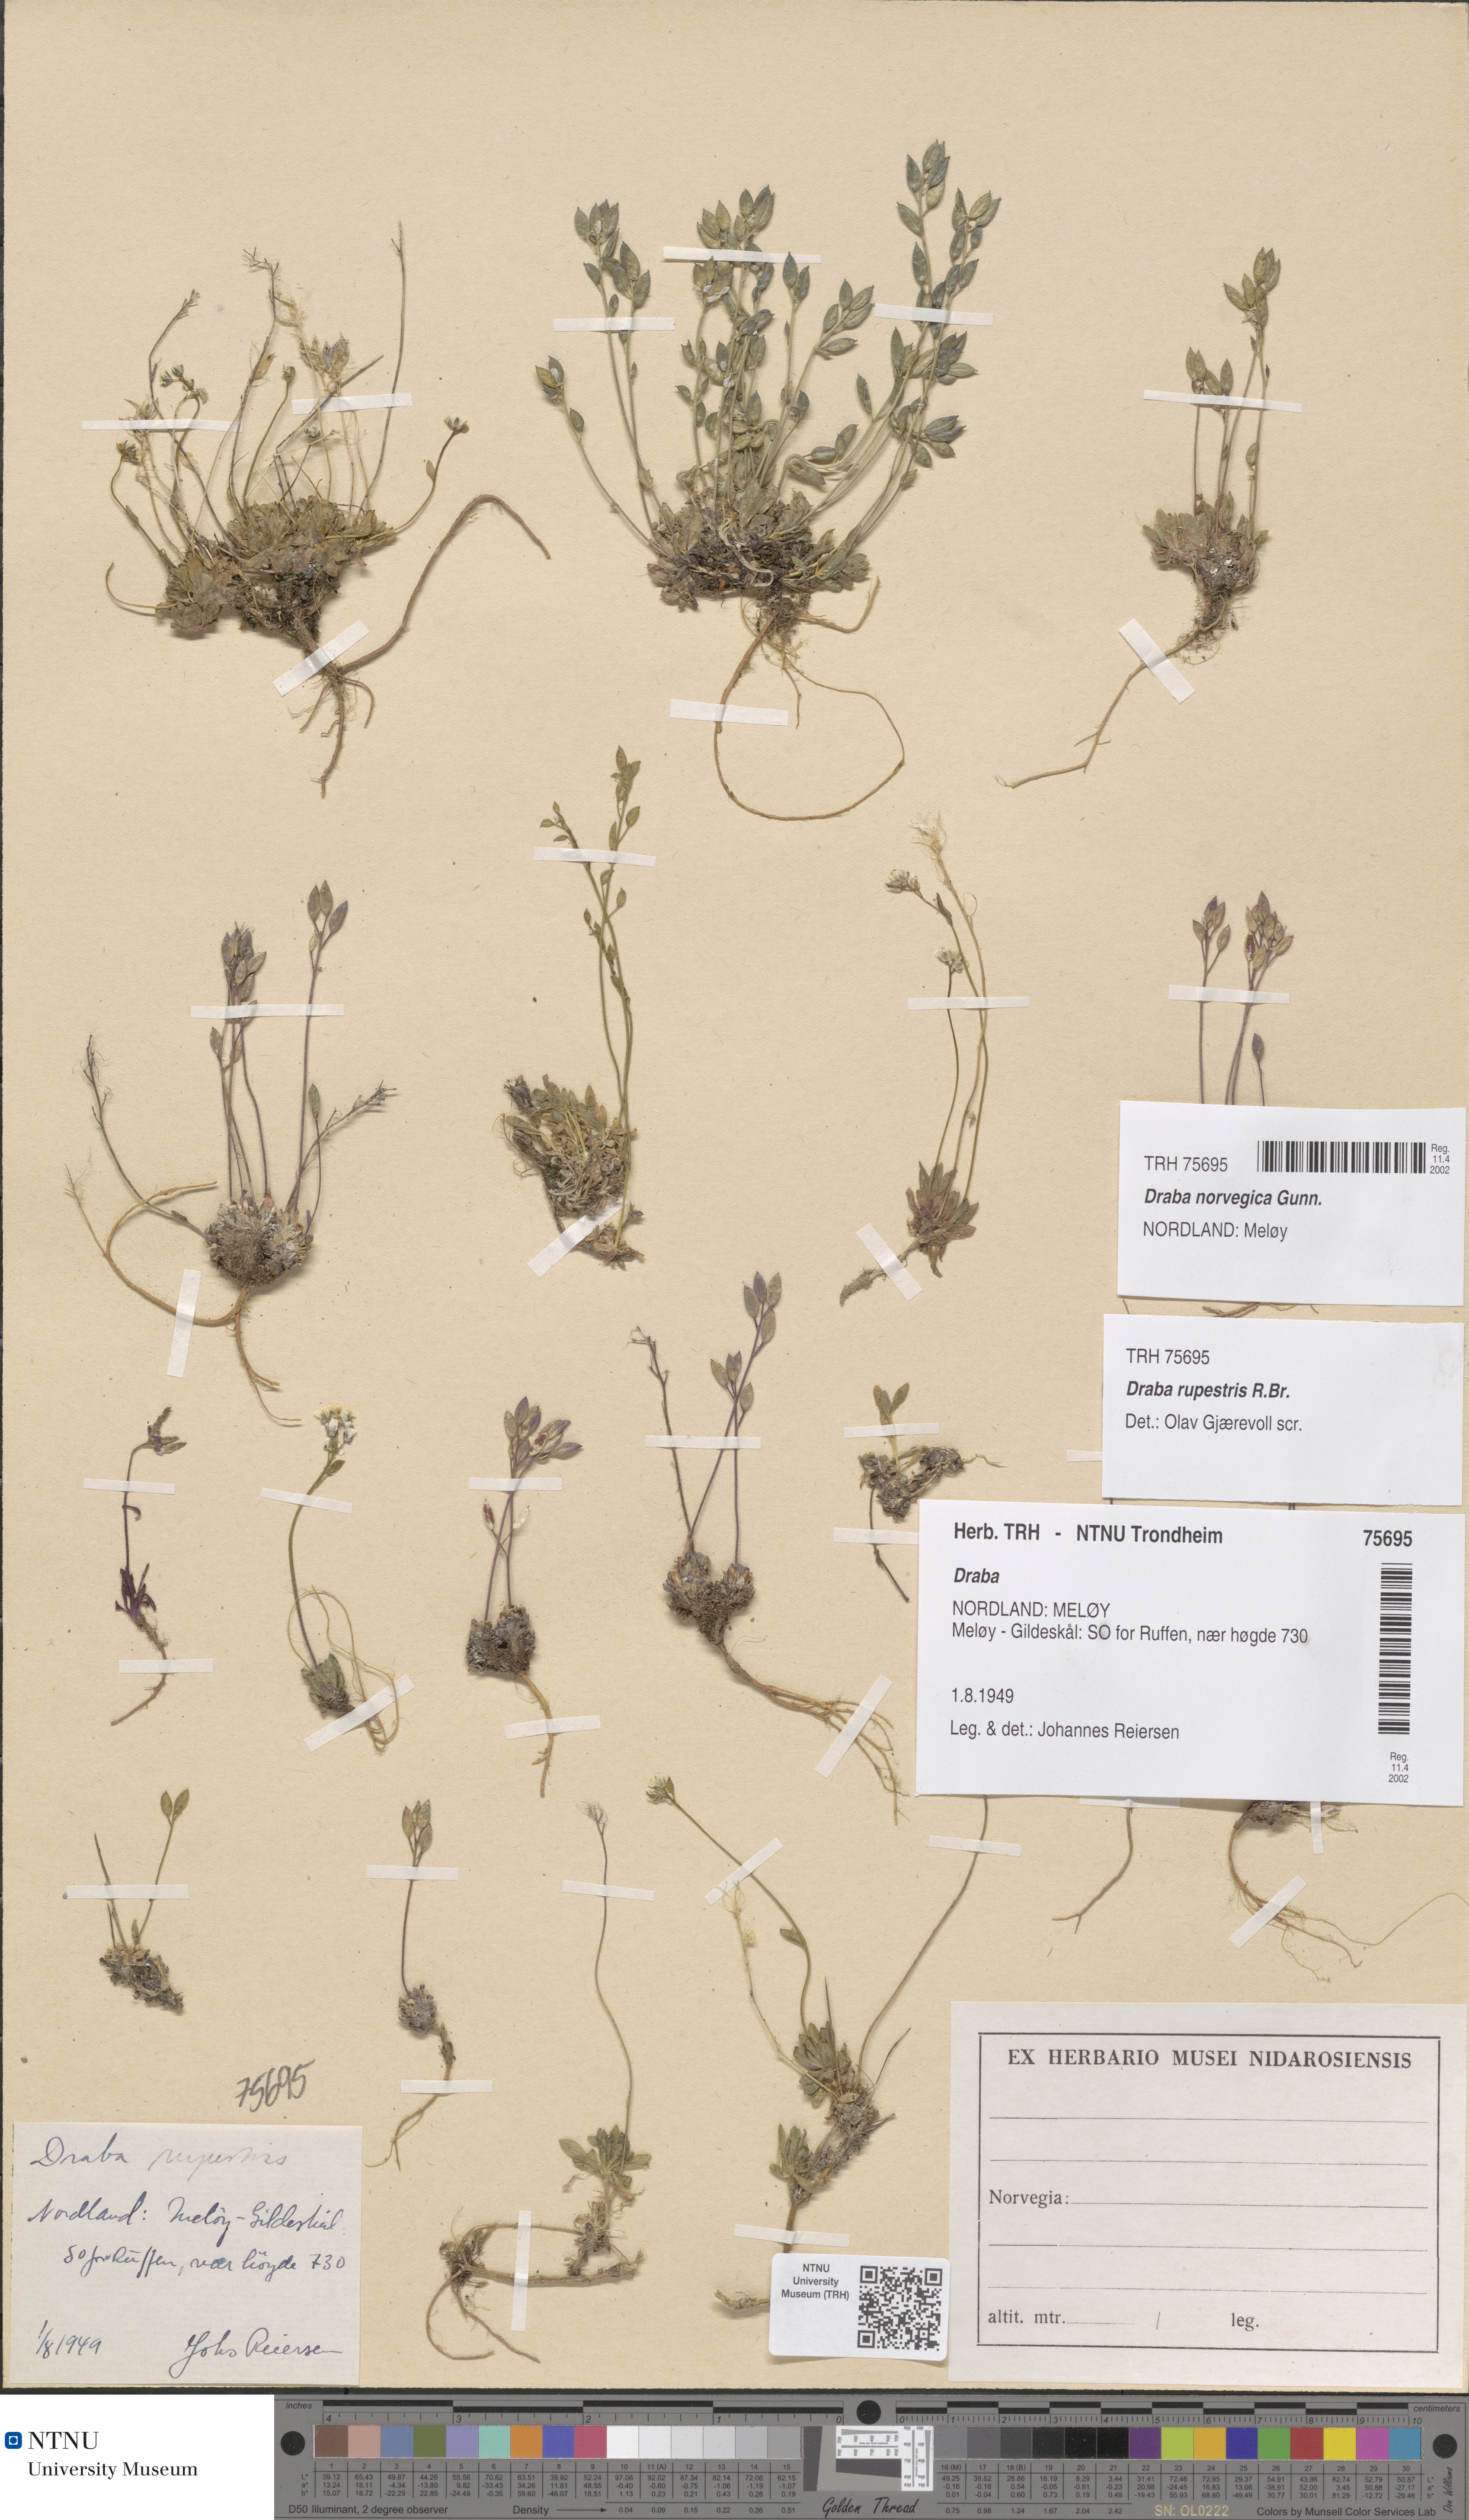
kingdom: Plantae
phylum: Tracheophyta
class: Magnoliopsida
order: Brassicales
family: Brassicaceae
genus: Draba
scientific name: Draba norvegica
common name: Rock whitlowgrass
